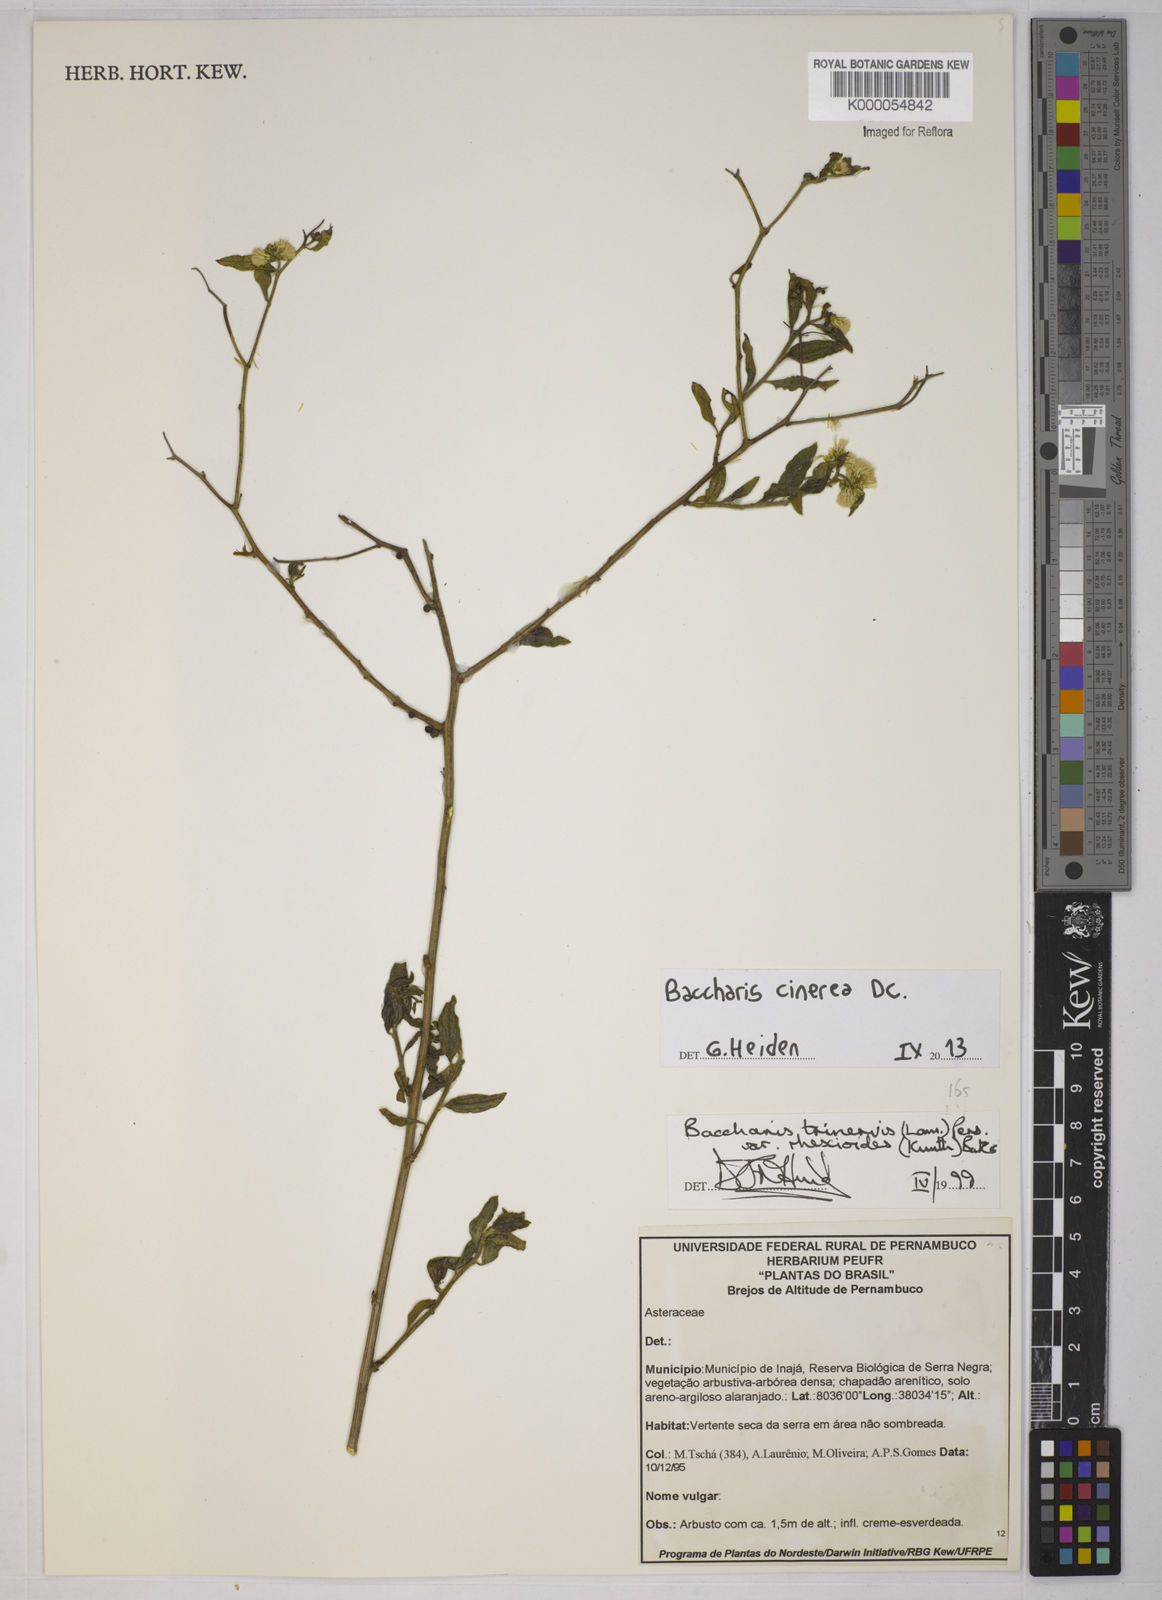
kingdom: Plantae
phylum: Tracheophyta
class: Magnoliopsida
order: Asterales
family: Asteraceae
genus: Baccharis
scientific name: Baccharis trinervis
